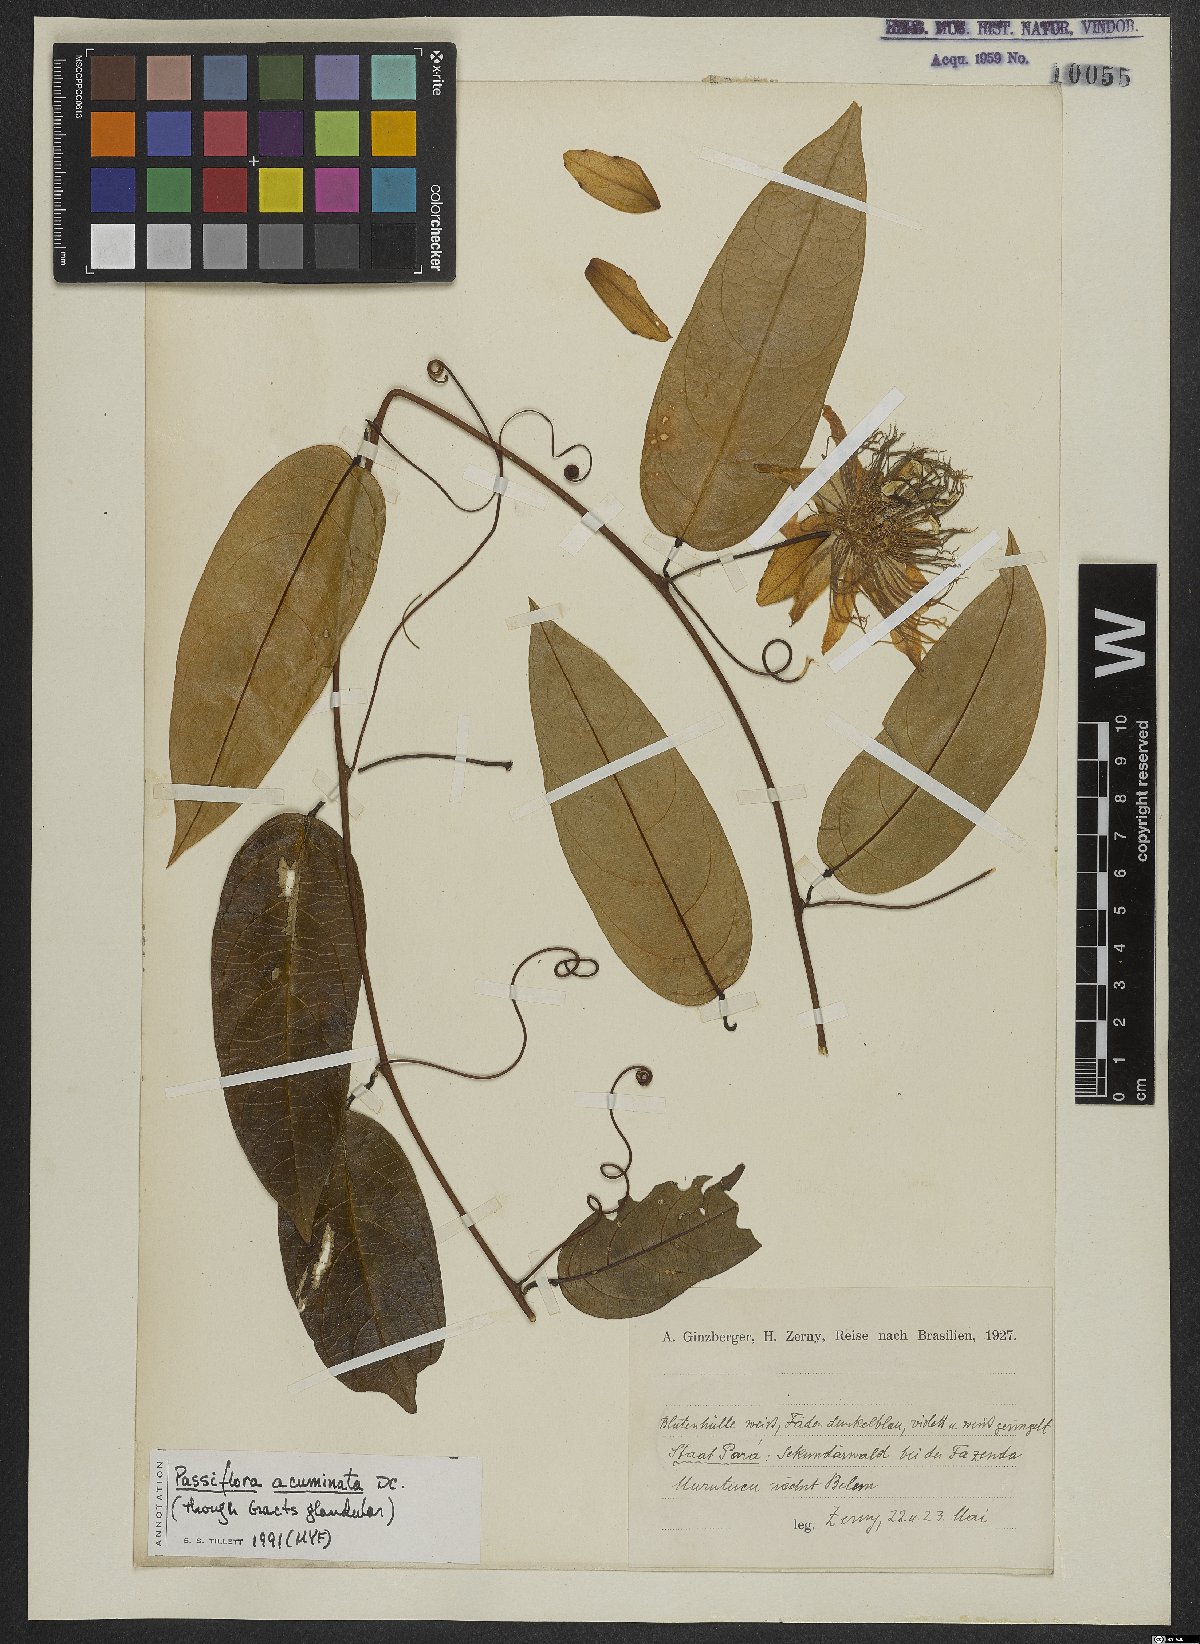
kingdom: Plantae
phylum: Tracheophyta
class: Magnoliopsida
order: Malpighiales
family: Passifloraceae
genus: Passiflora
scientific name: Passiflora acuminata
